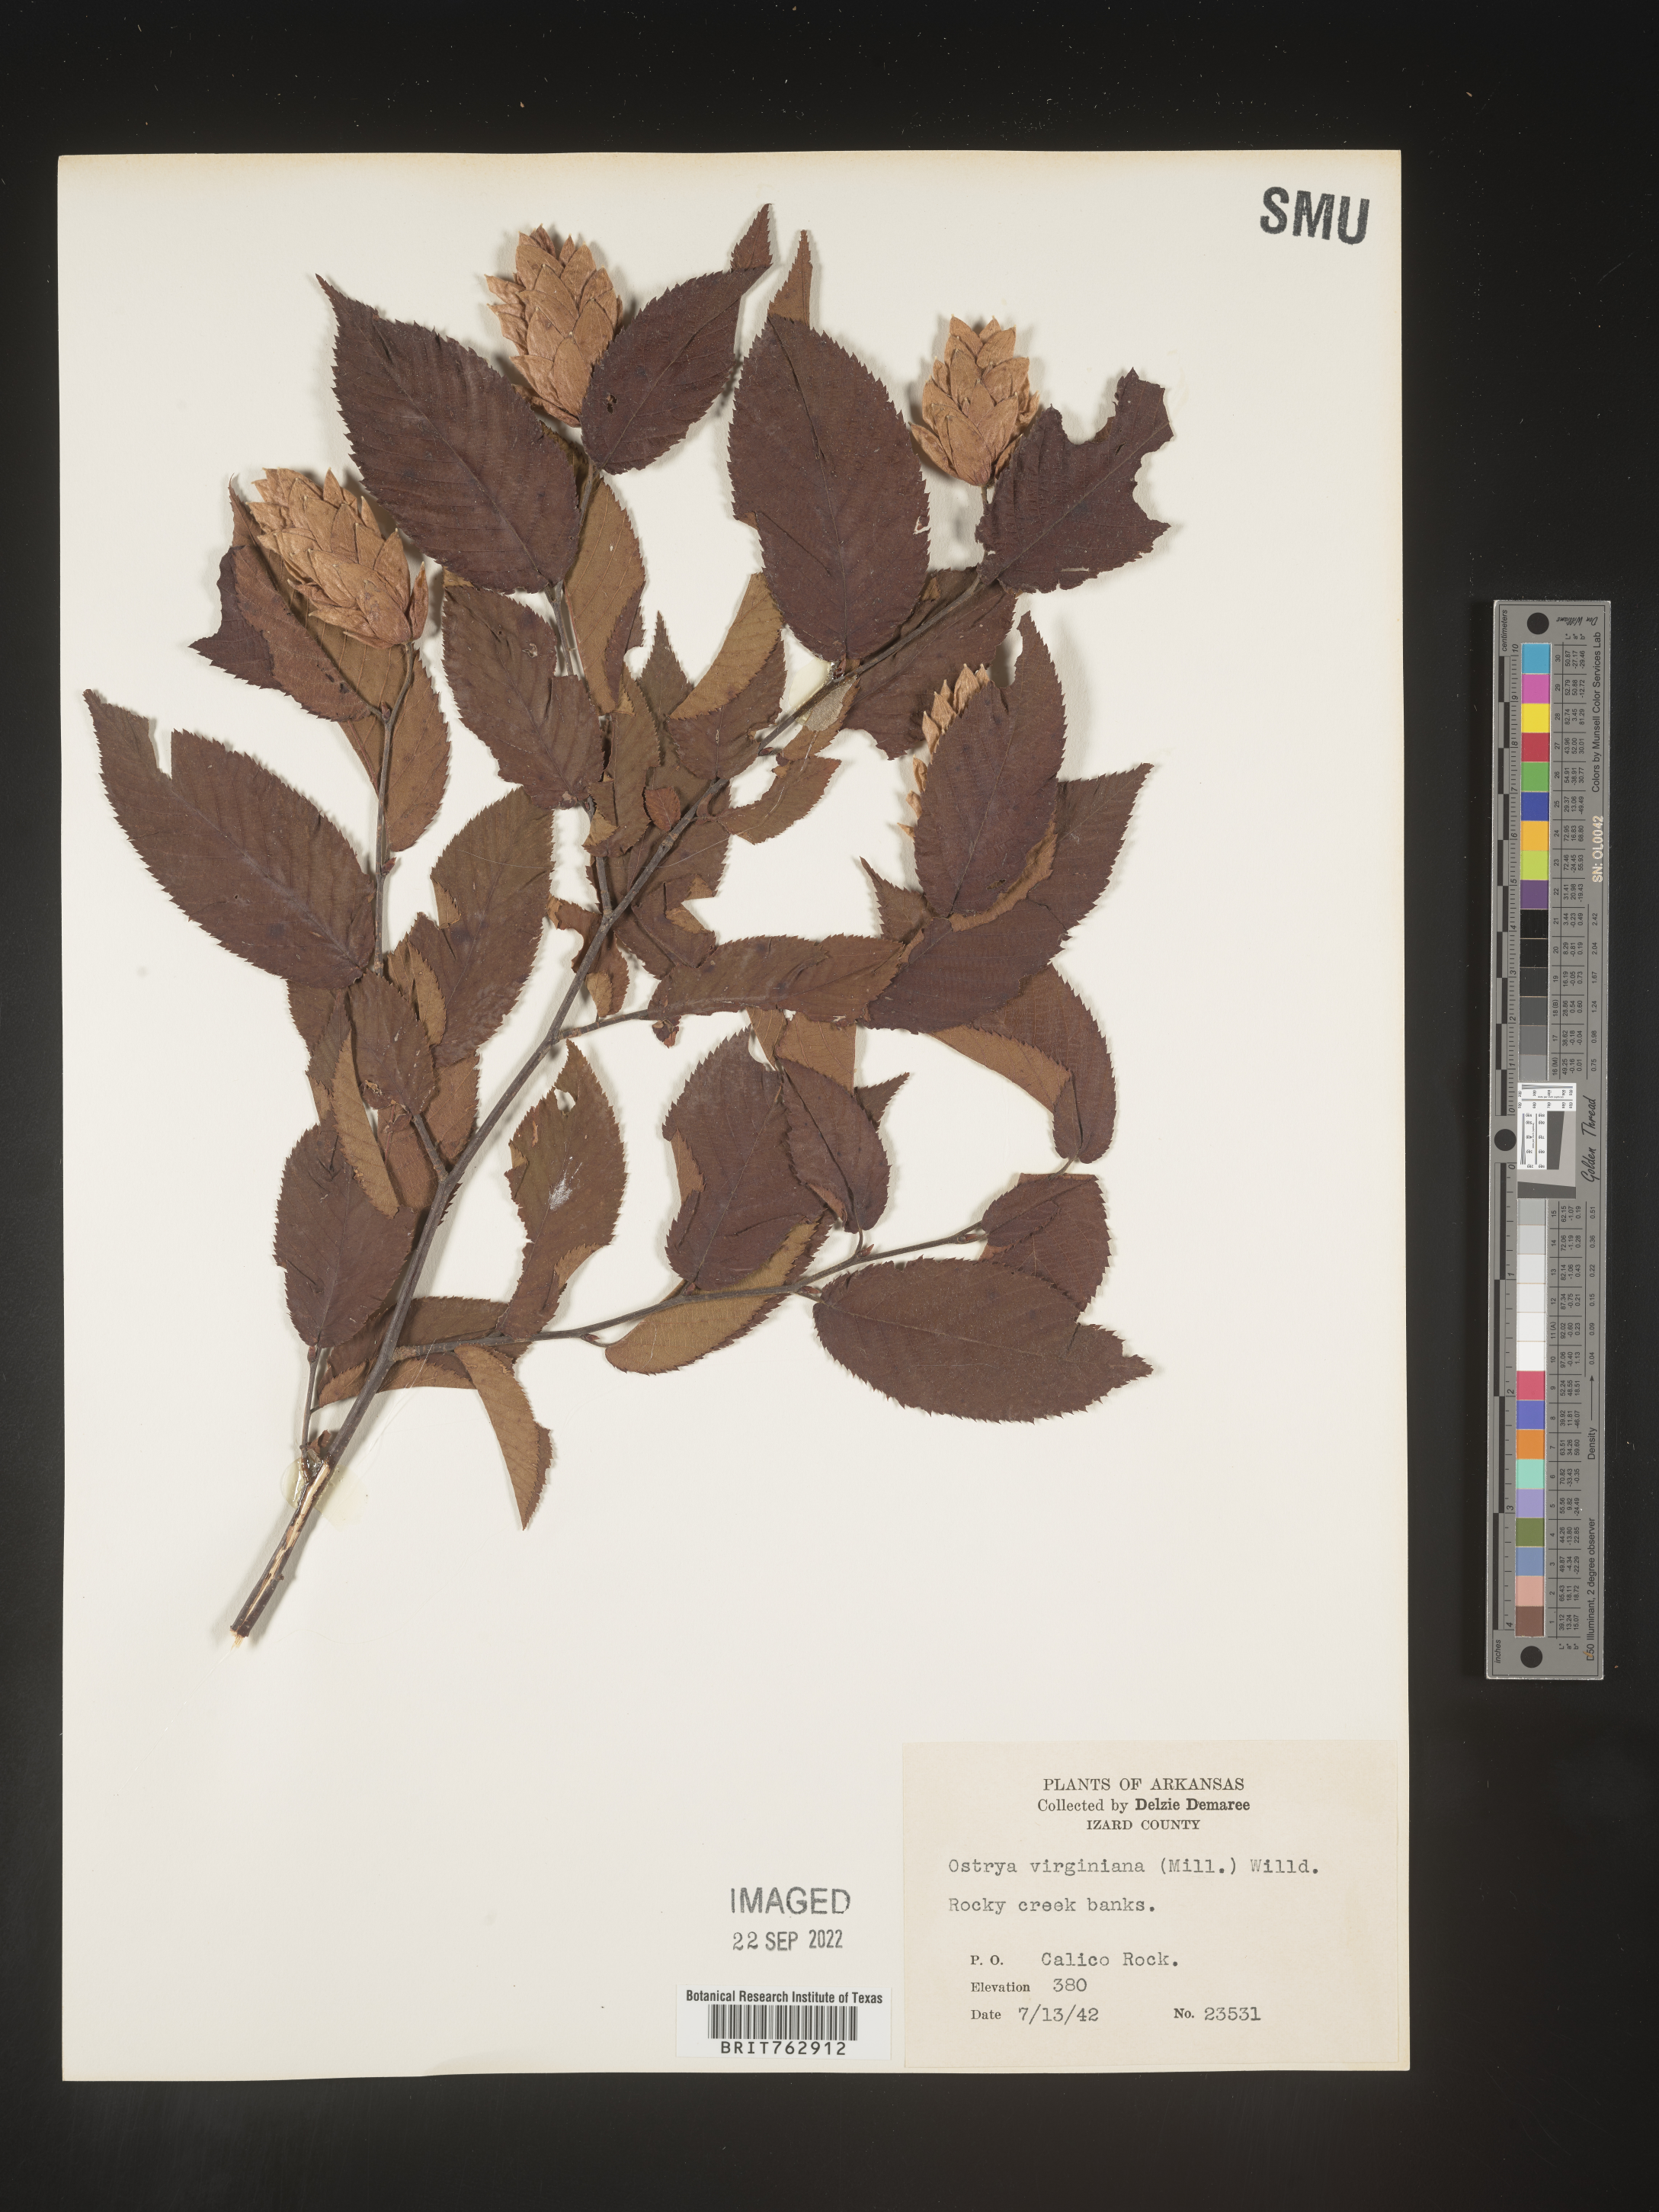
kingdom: Plantae
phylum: Tracheophyta
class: Magnoliopsida
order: Fagales
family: Betulaceae
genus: Ostrya
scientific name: Ostrya virginiana
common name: Ironwood
